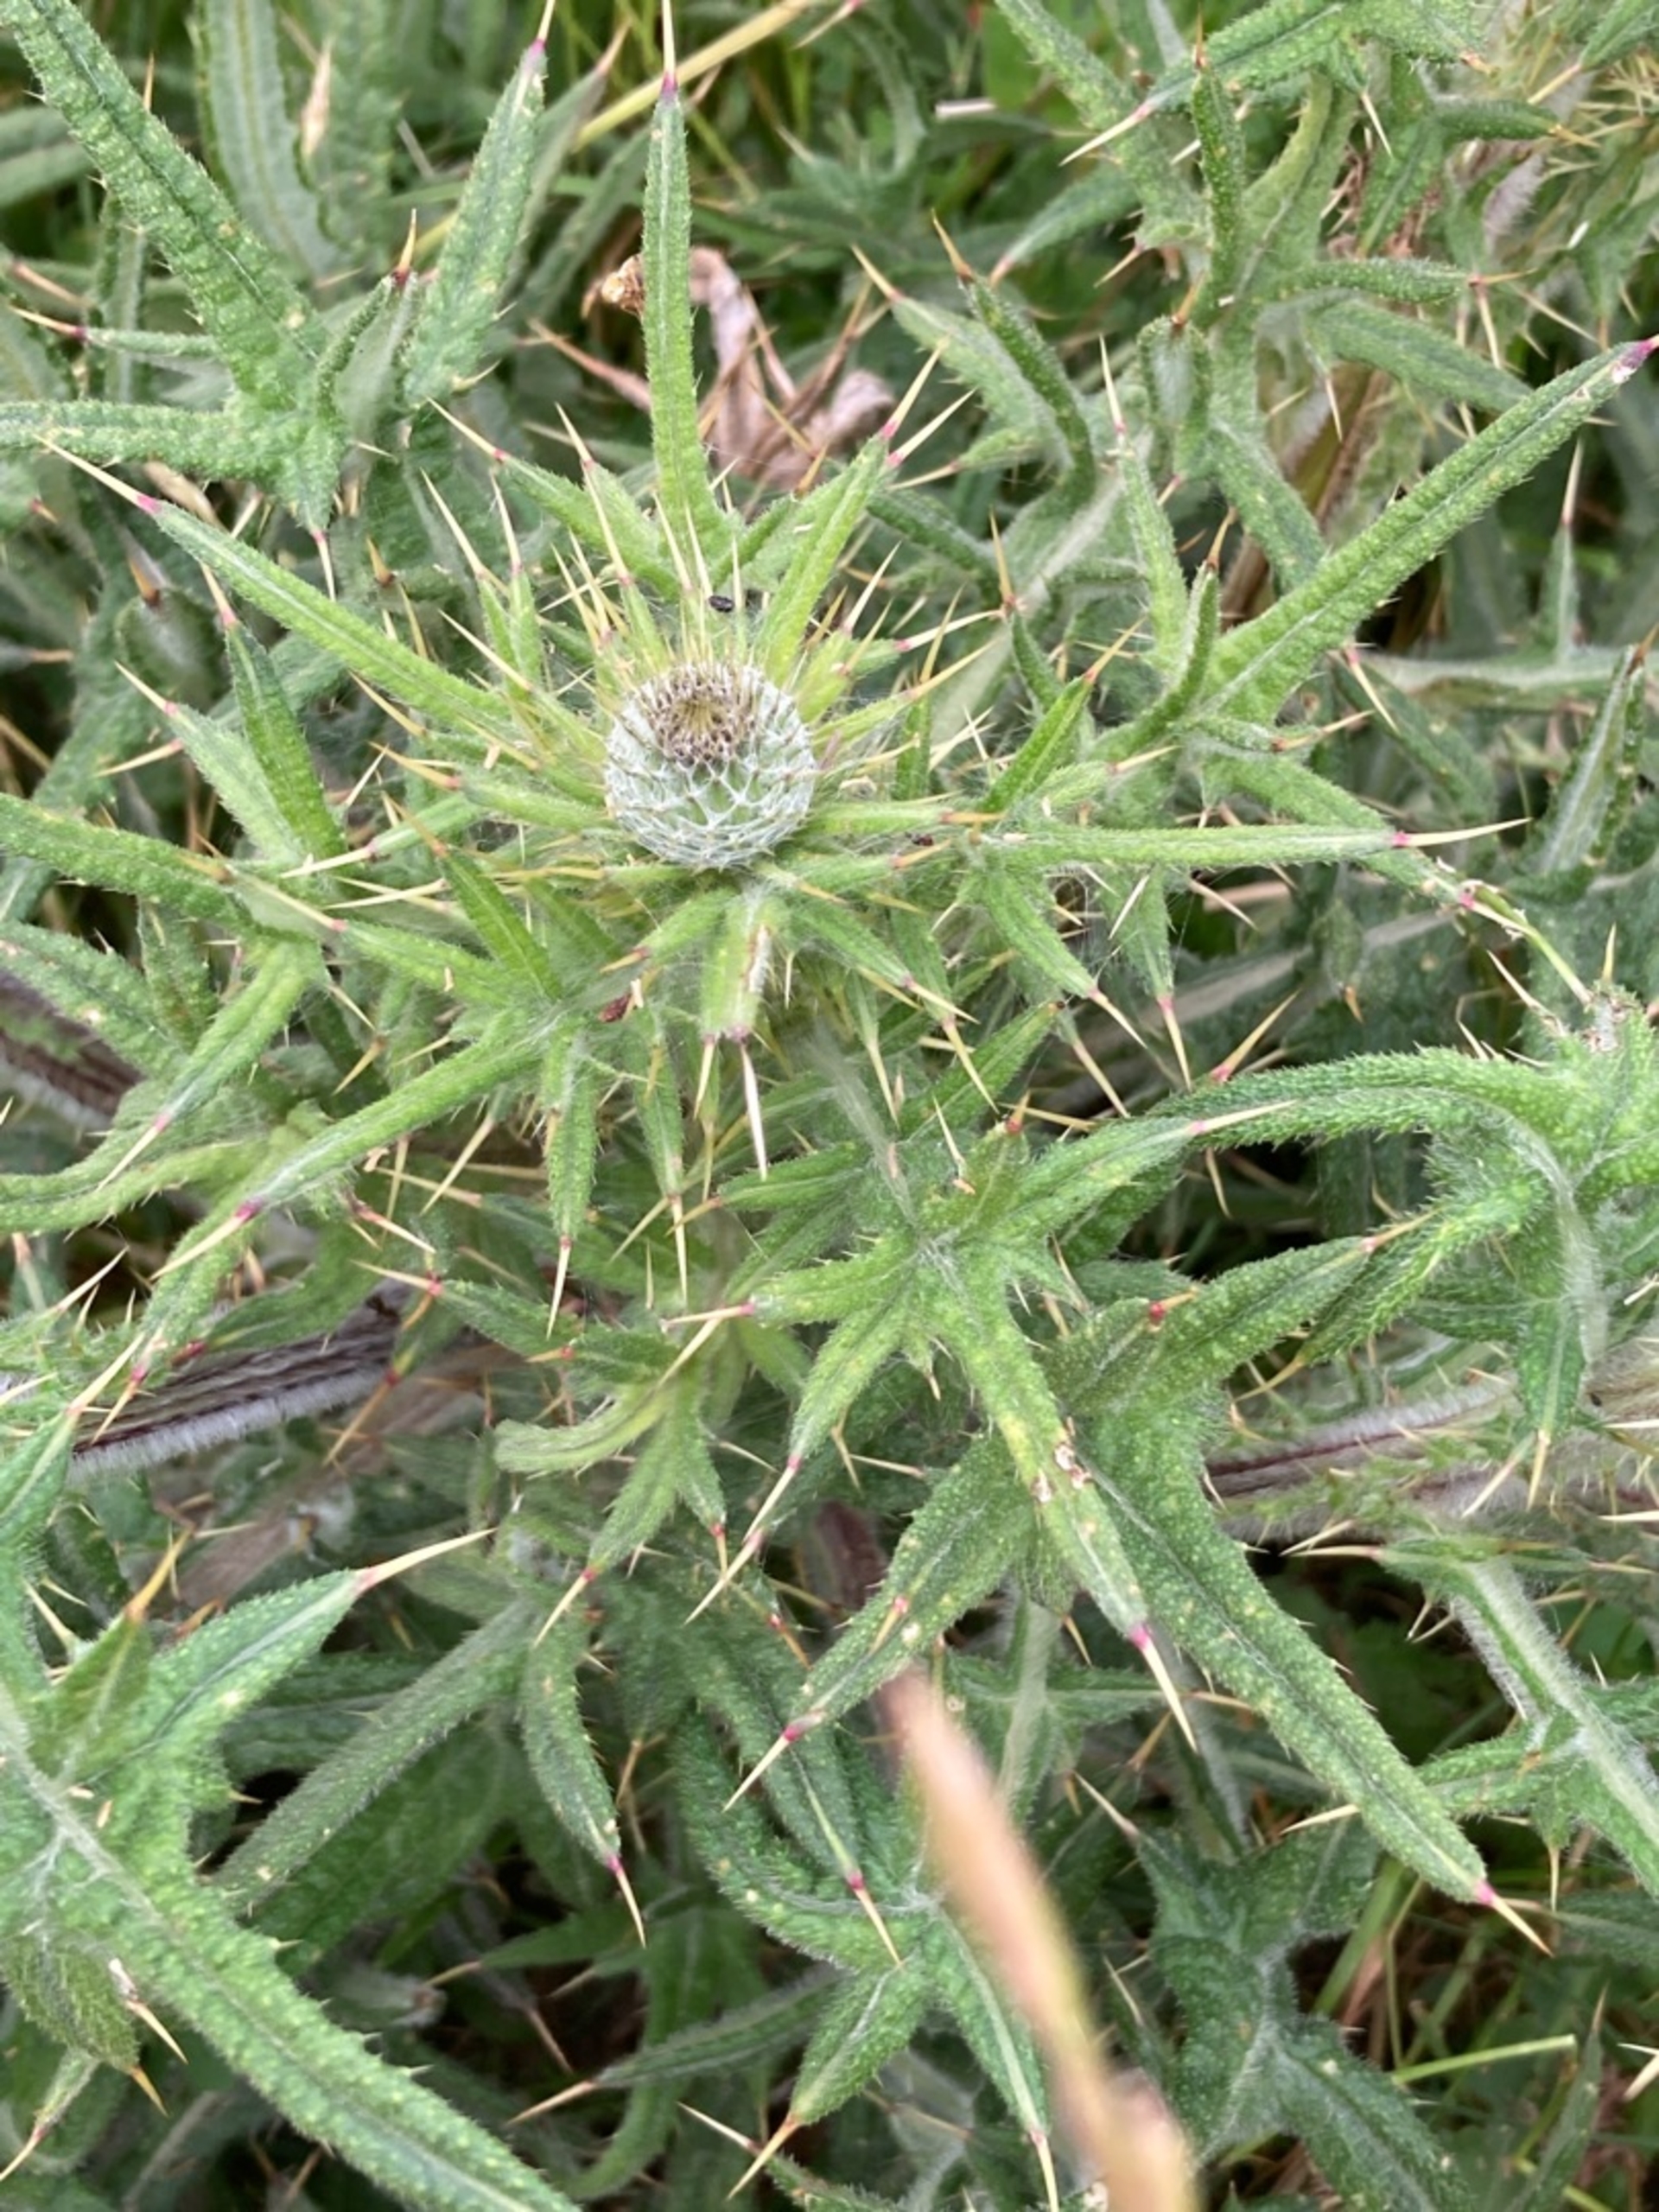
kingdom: Plantae
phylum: Tracheophyta
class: Magnoliopsida
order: Asterales
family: Asteraceae
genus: Cirsium
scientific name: Cirsium vulgare
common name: Horse-tidsel
